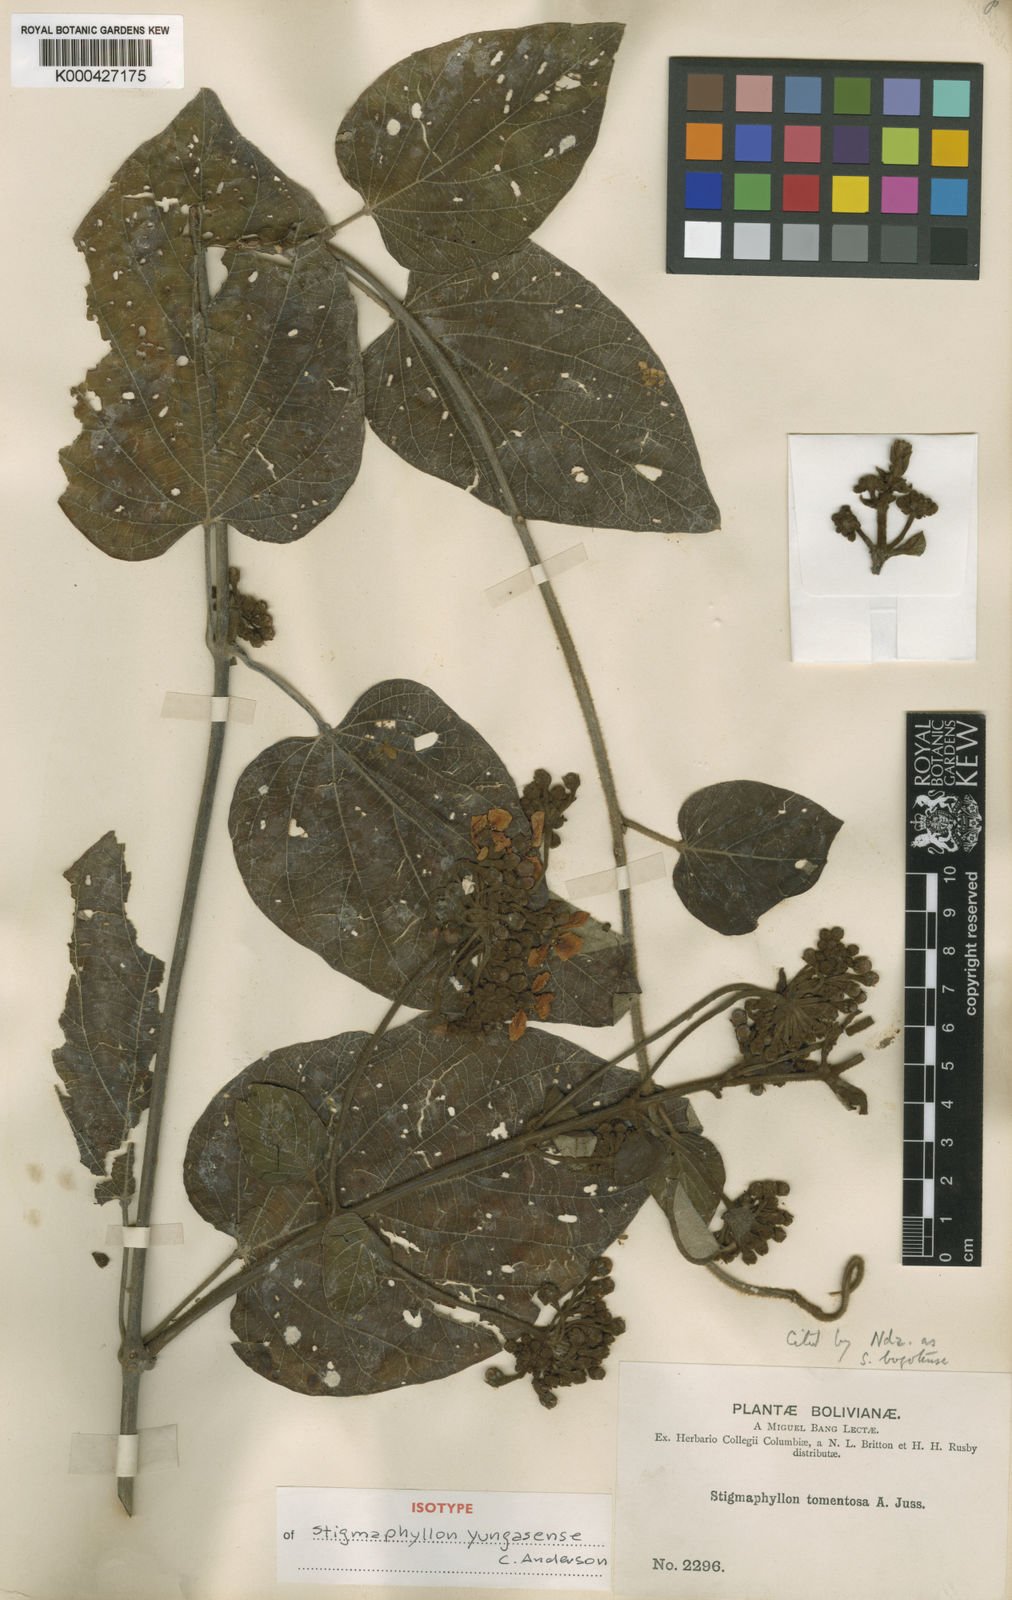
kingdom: Plantae
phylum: Tracheophyta
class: Magnoliopsida
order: Malpighiales
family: Malpighiaceae
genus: Stigmaphyllon
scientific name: Stigmaphyllon yungasense
